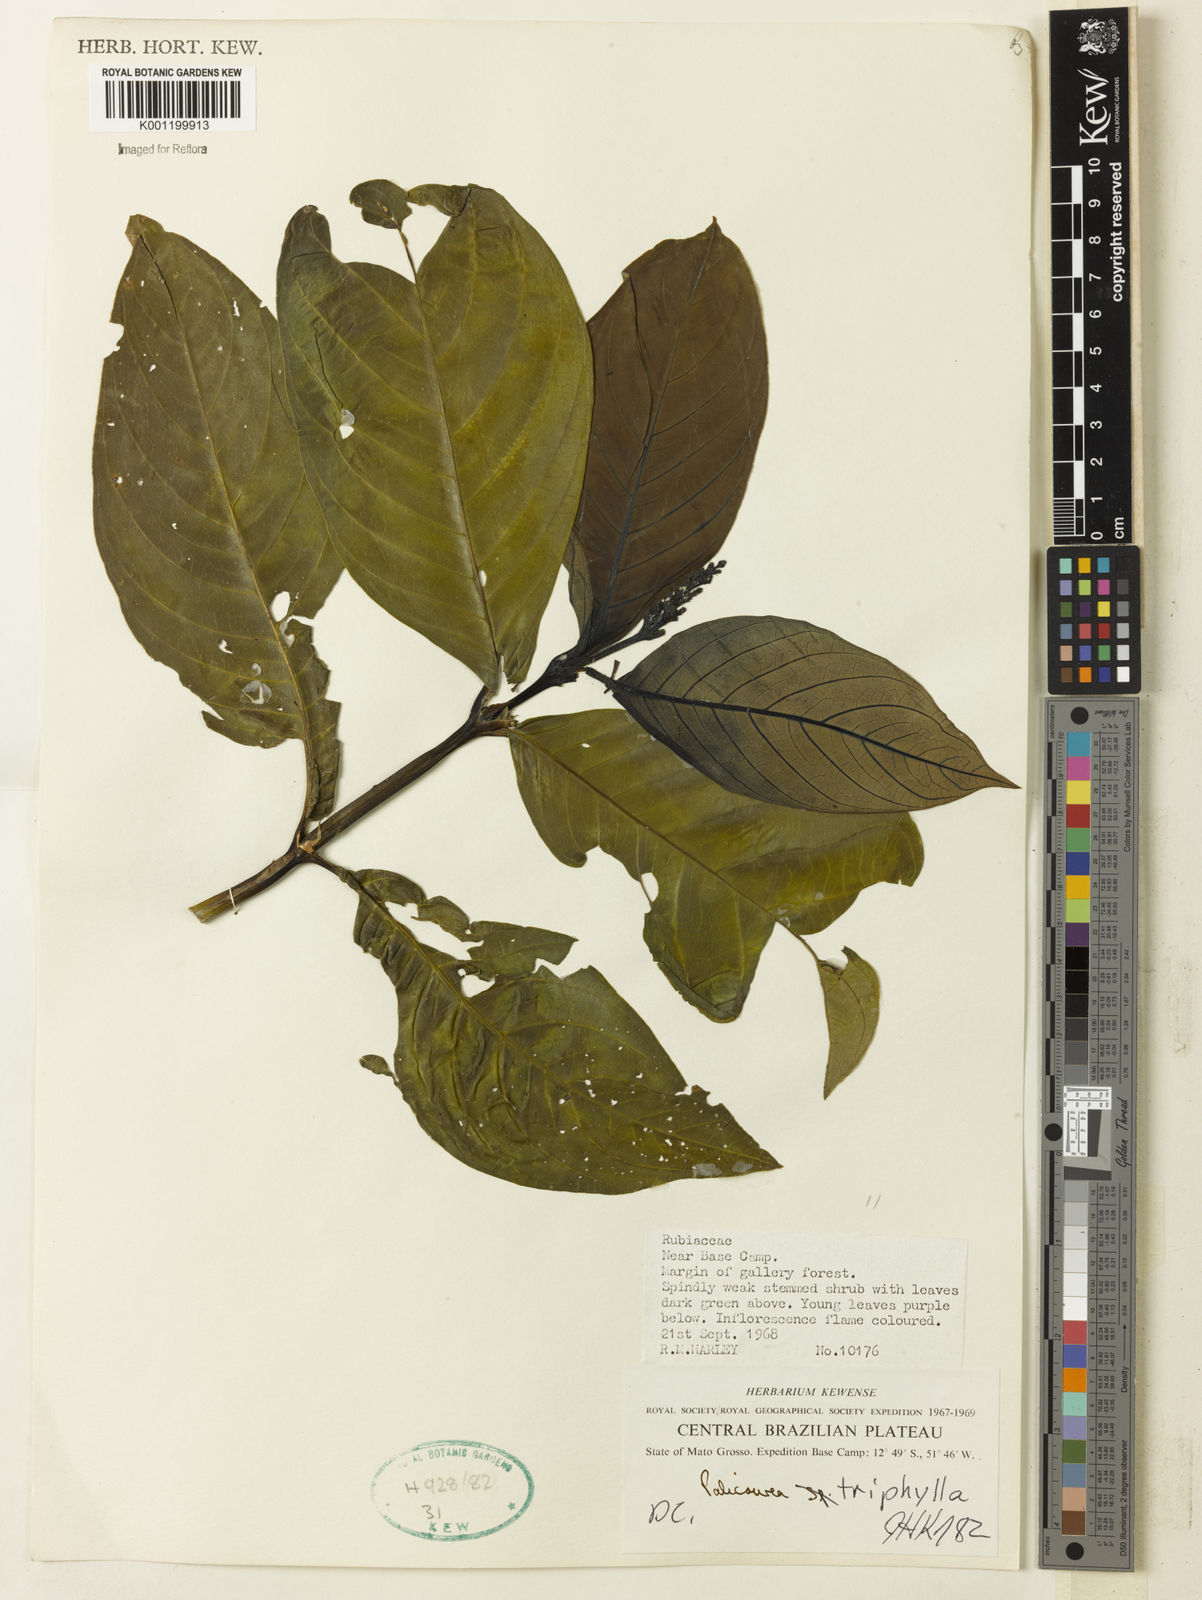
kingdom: Plantae
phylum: Tracheophyta
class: Magnoliopsida
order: Gentianales
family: Rubiaceae
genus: Palicourea
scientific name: Palicourea triphylla
